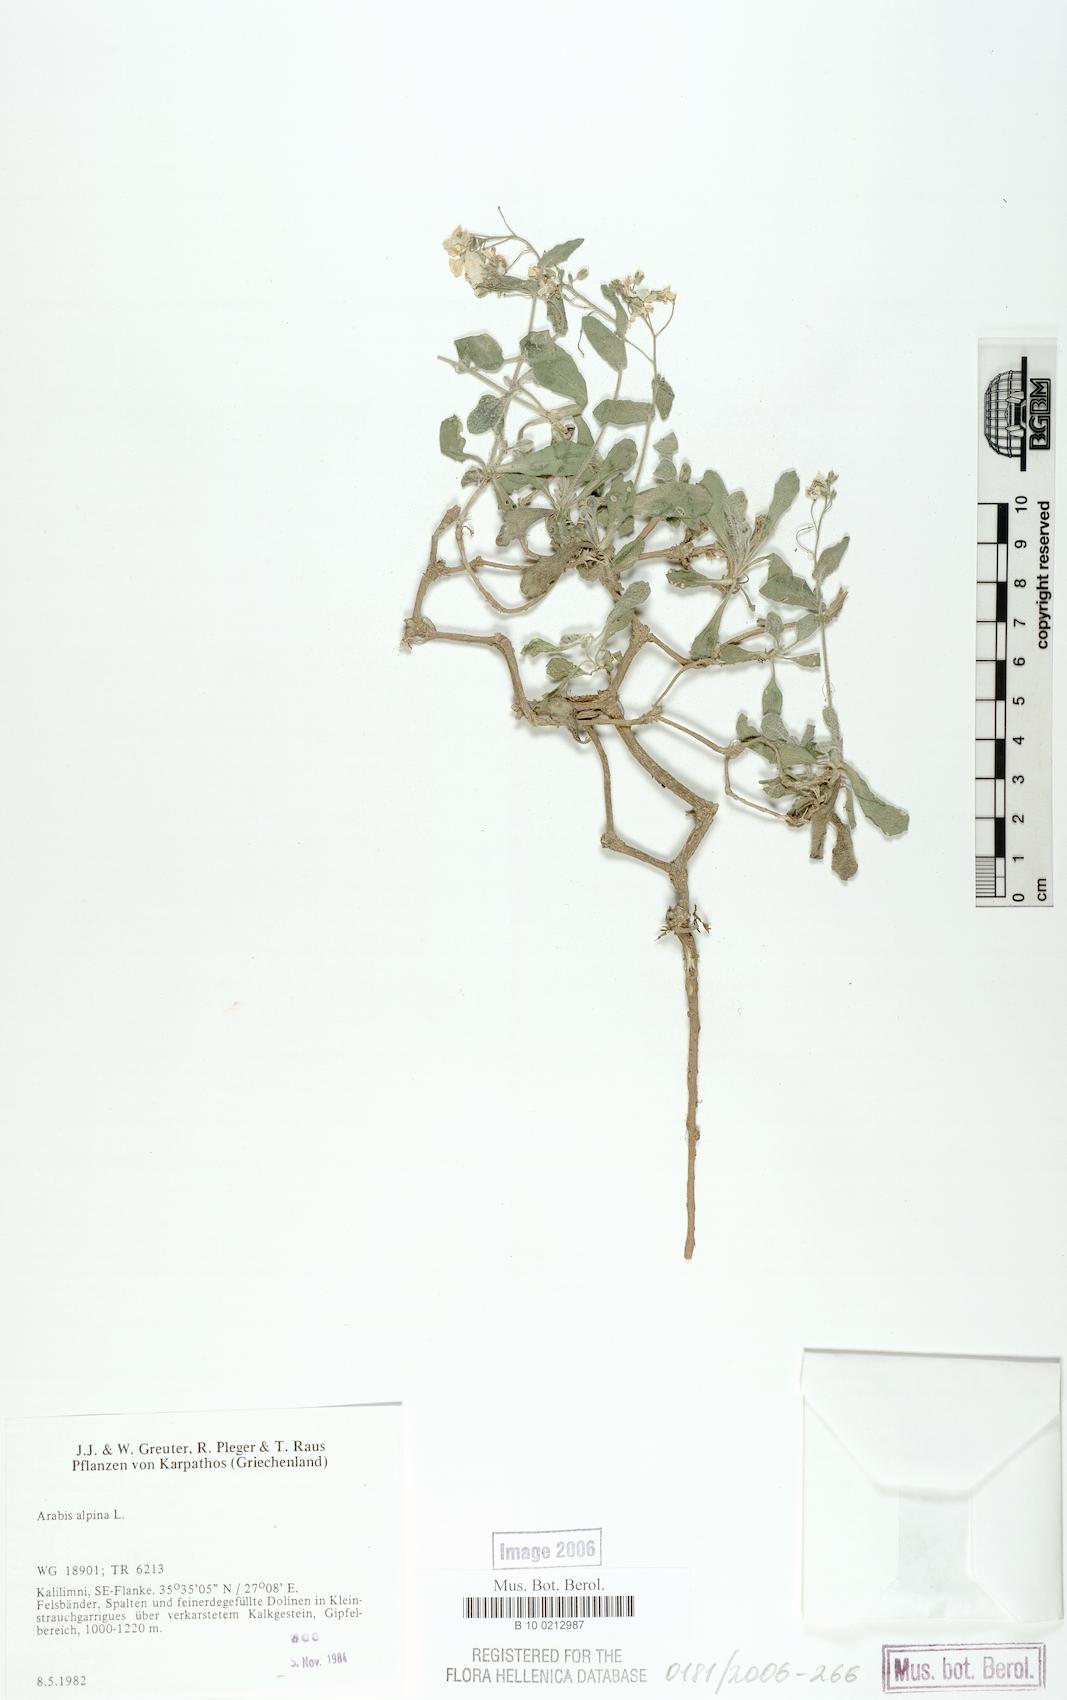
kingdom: Plantae
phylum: Tracheophyta
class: Magnoliopsida
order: Brassicales
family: Brassicaceae
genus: Arabis
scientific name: Arabis alpina
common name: Alpine rock-cress
